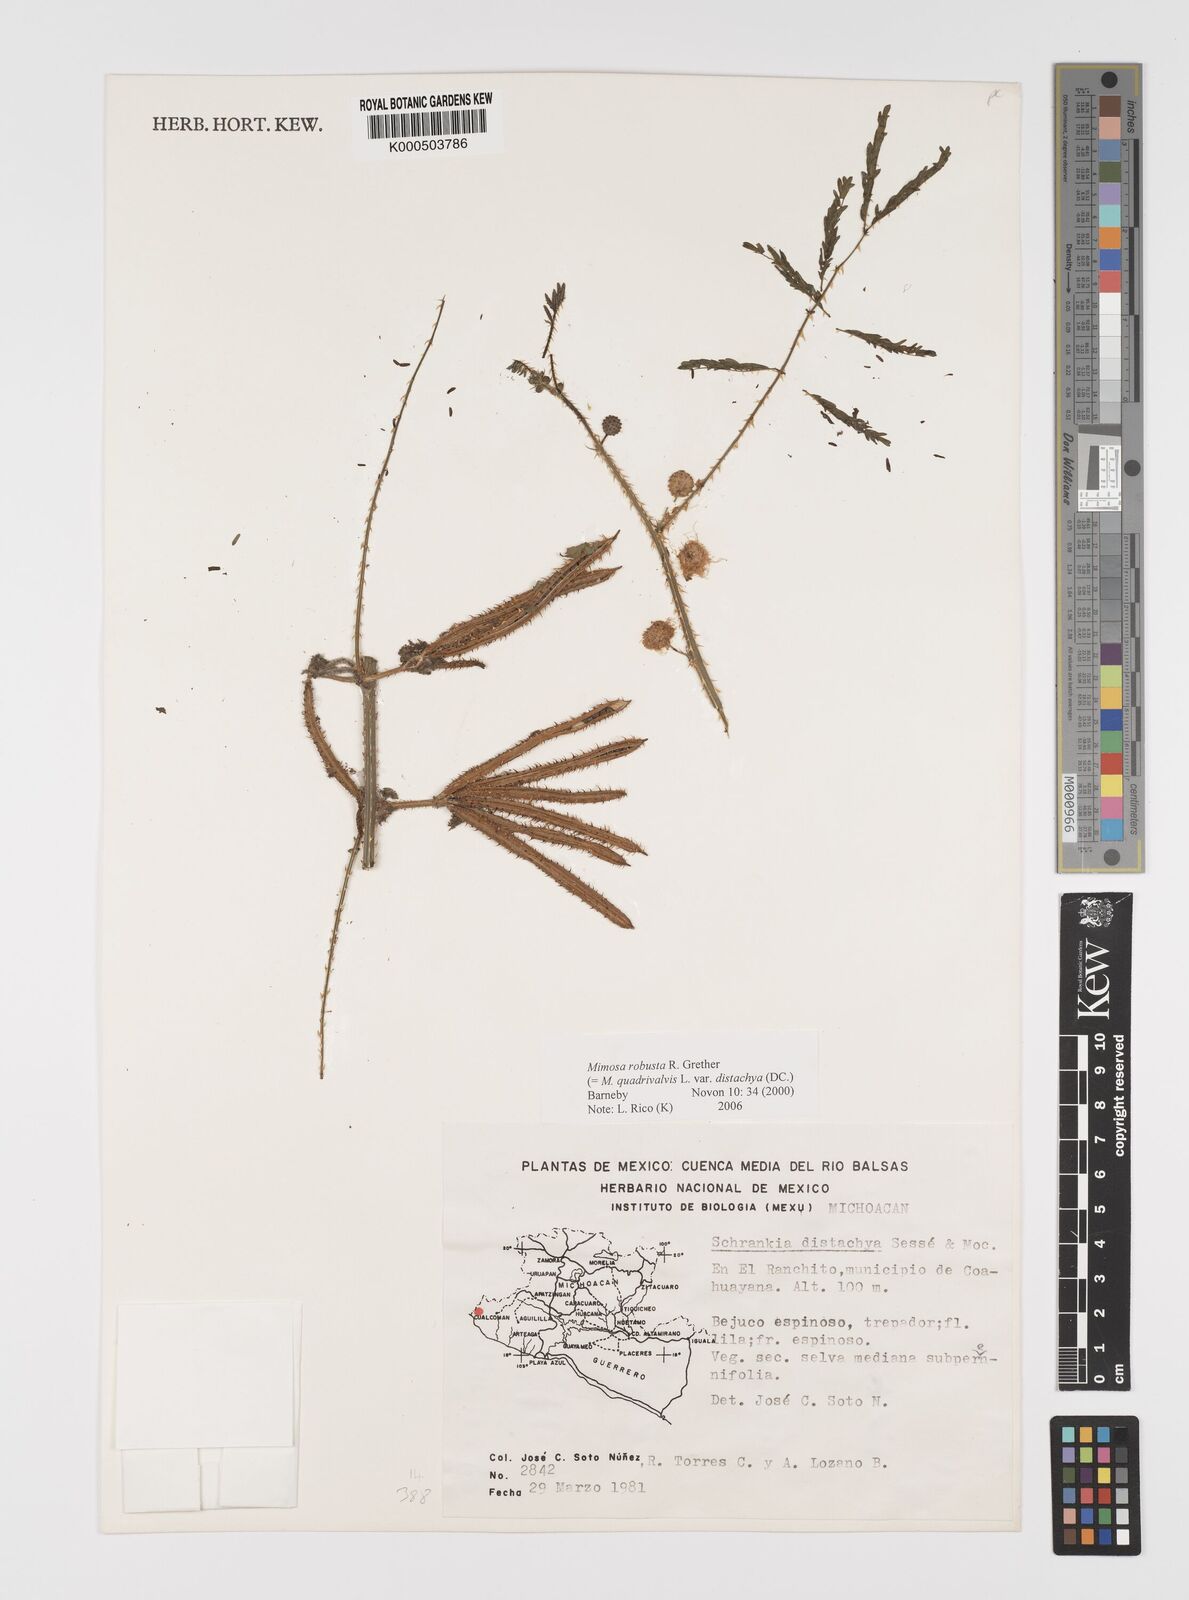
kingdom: Plantae
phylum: Tracheophyta
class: Magnoliopsida
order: Fabales
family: Fabaceae
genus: Mimosa
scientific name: Mimosa robusta
